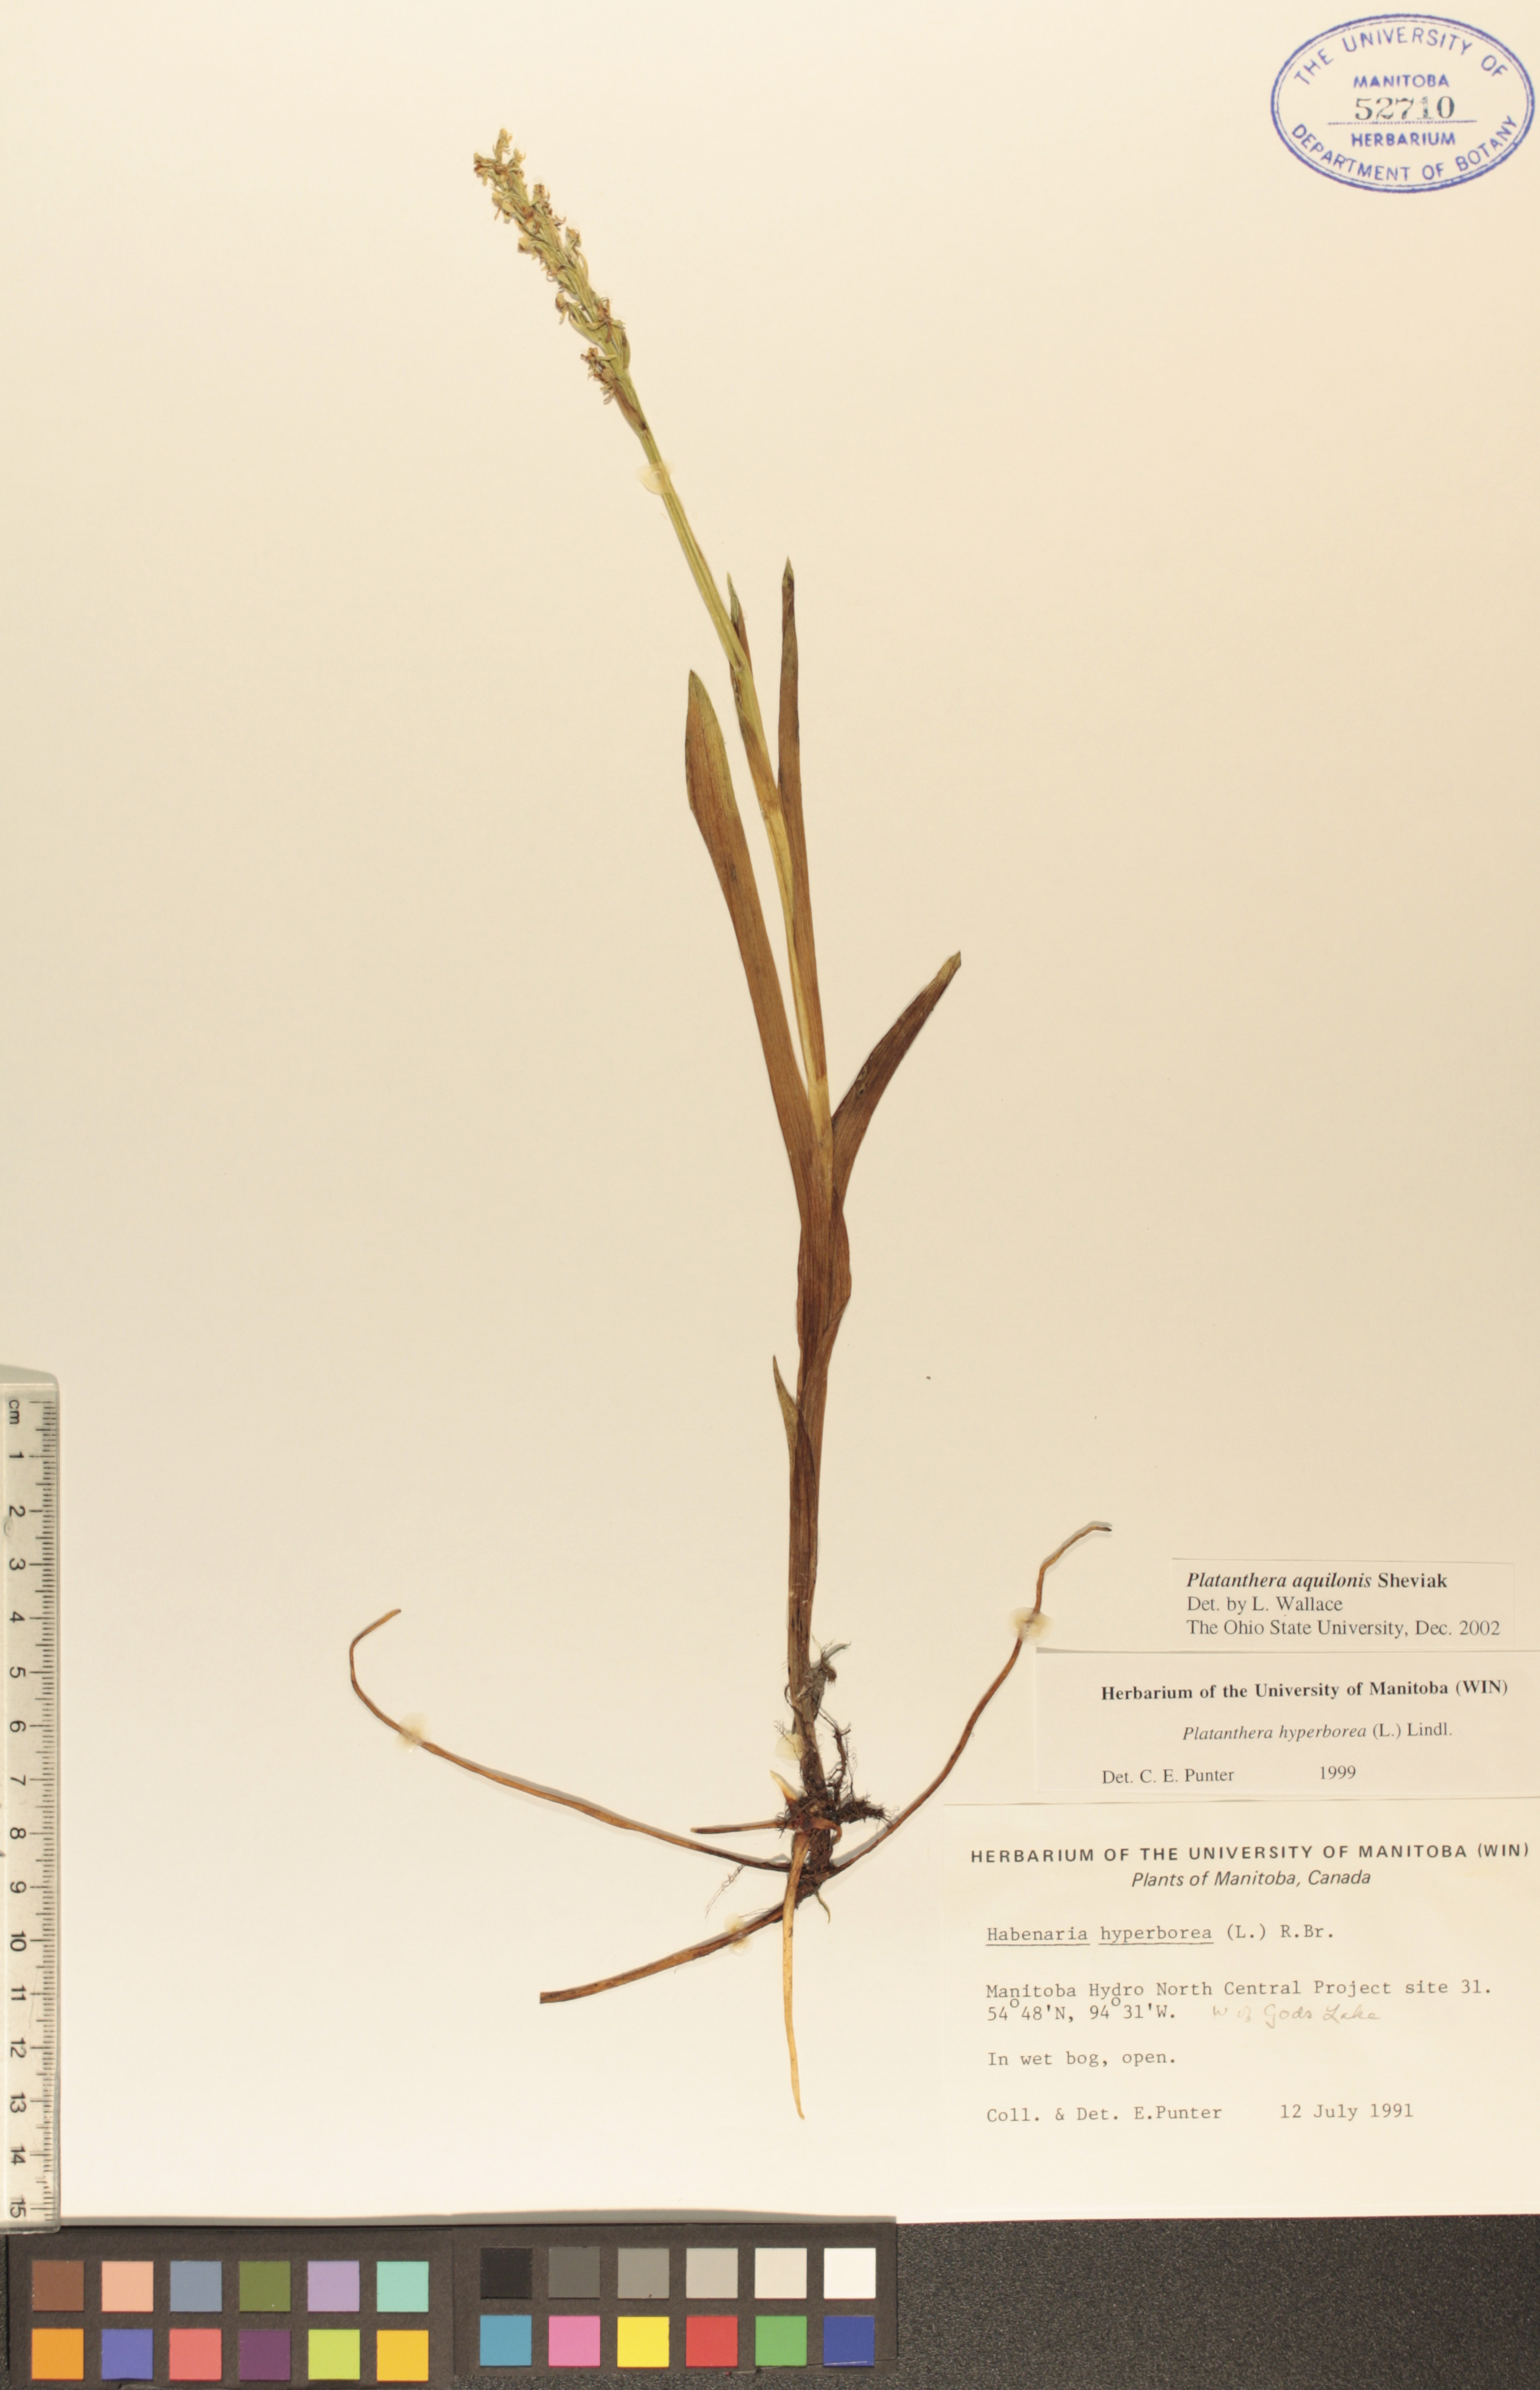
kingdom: Plantae
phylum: Tracheophyta
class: Liliopsida
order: Asparagales
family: Orchidaceae
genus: Platanthera
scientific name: Platanthera aquilonis
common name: Northern green orchid
